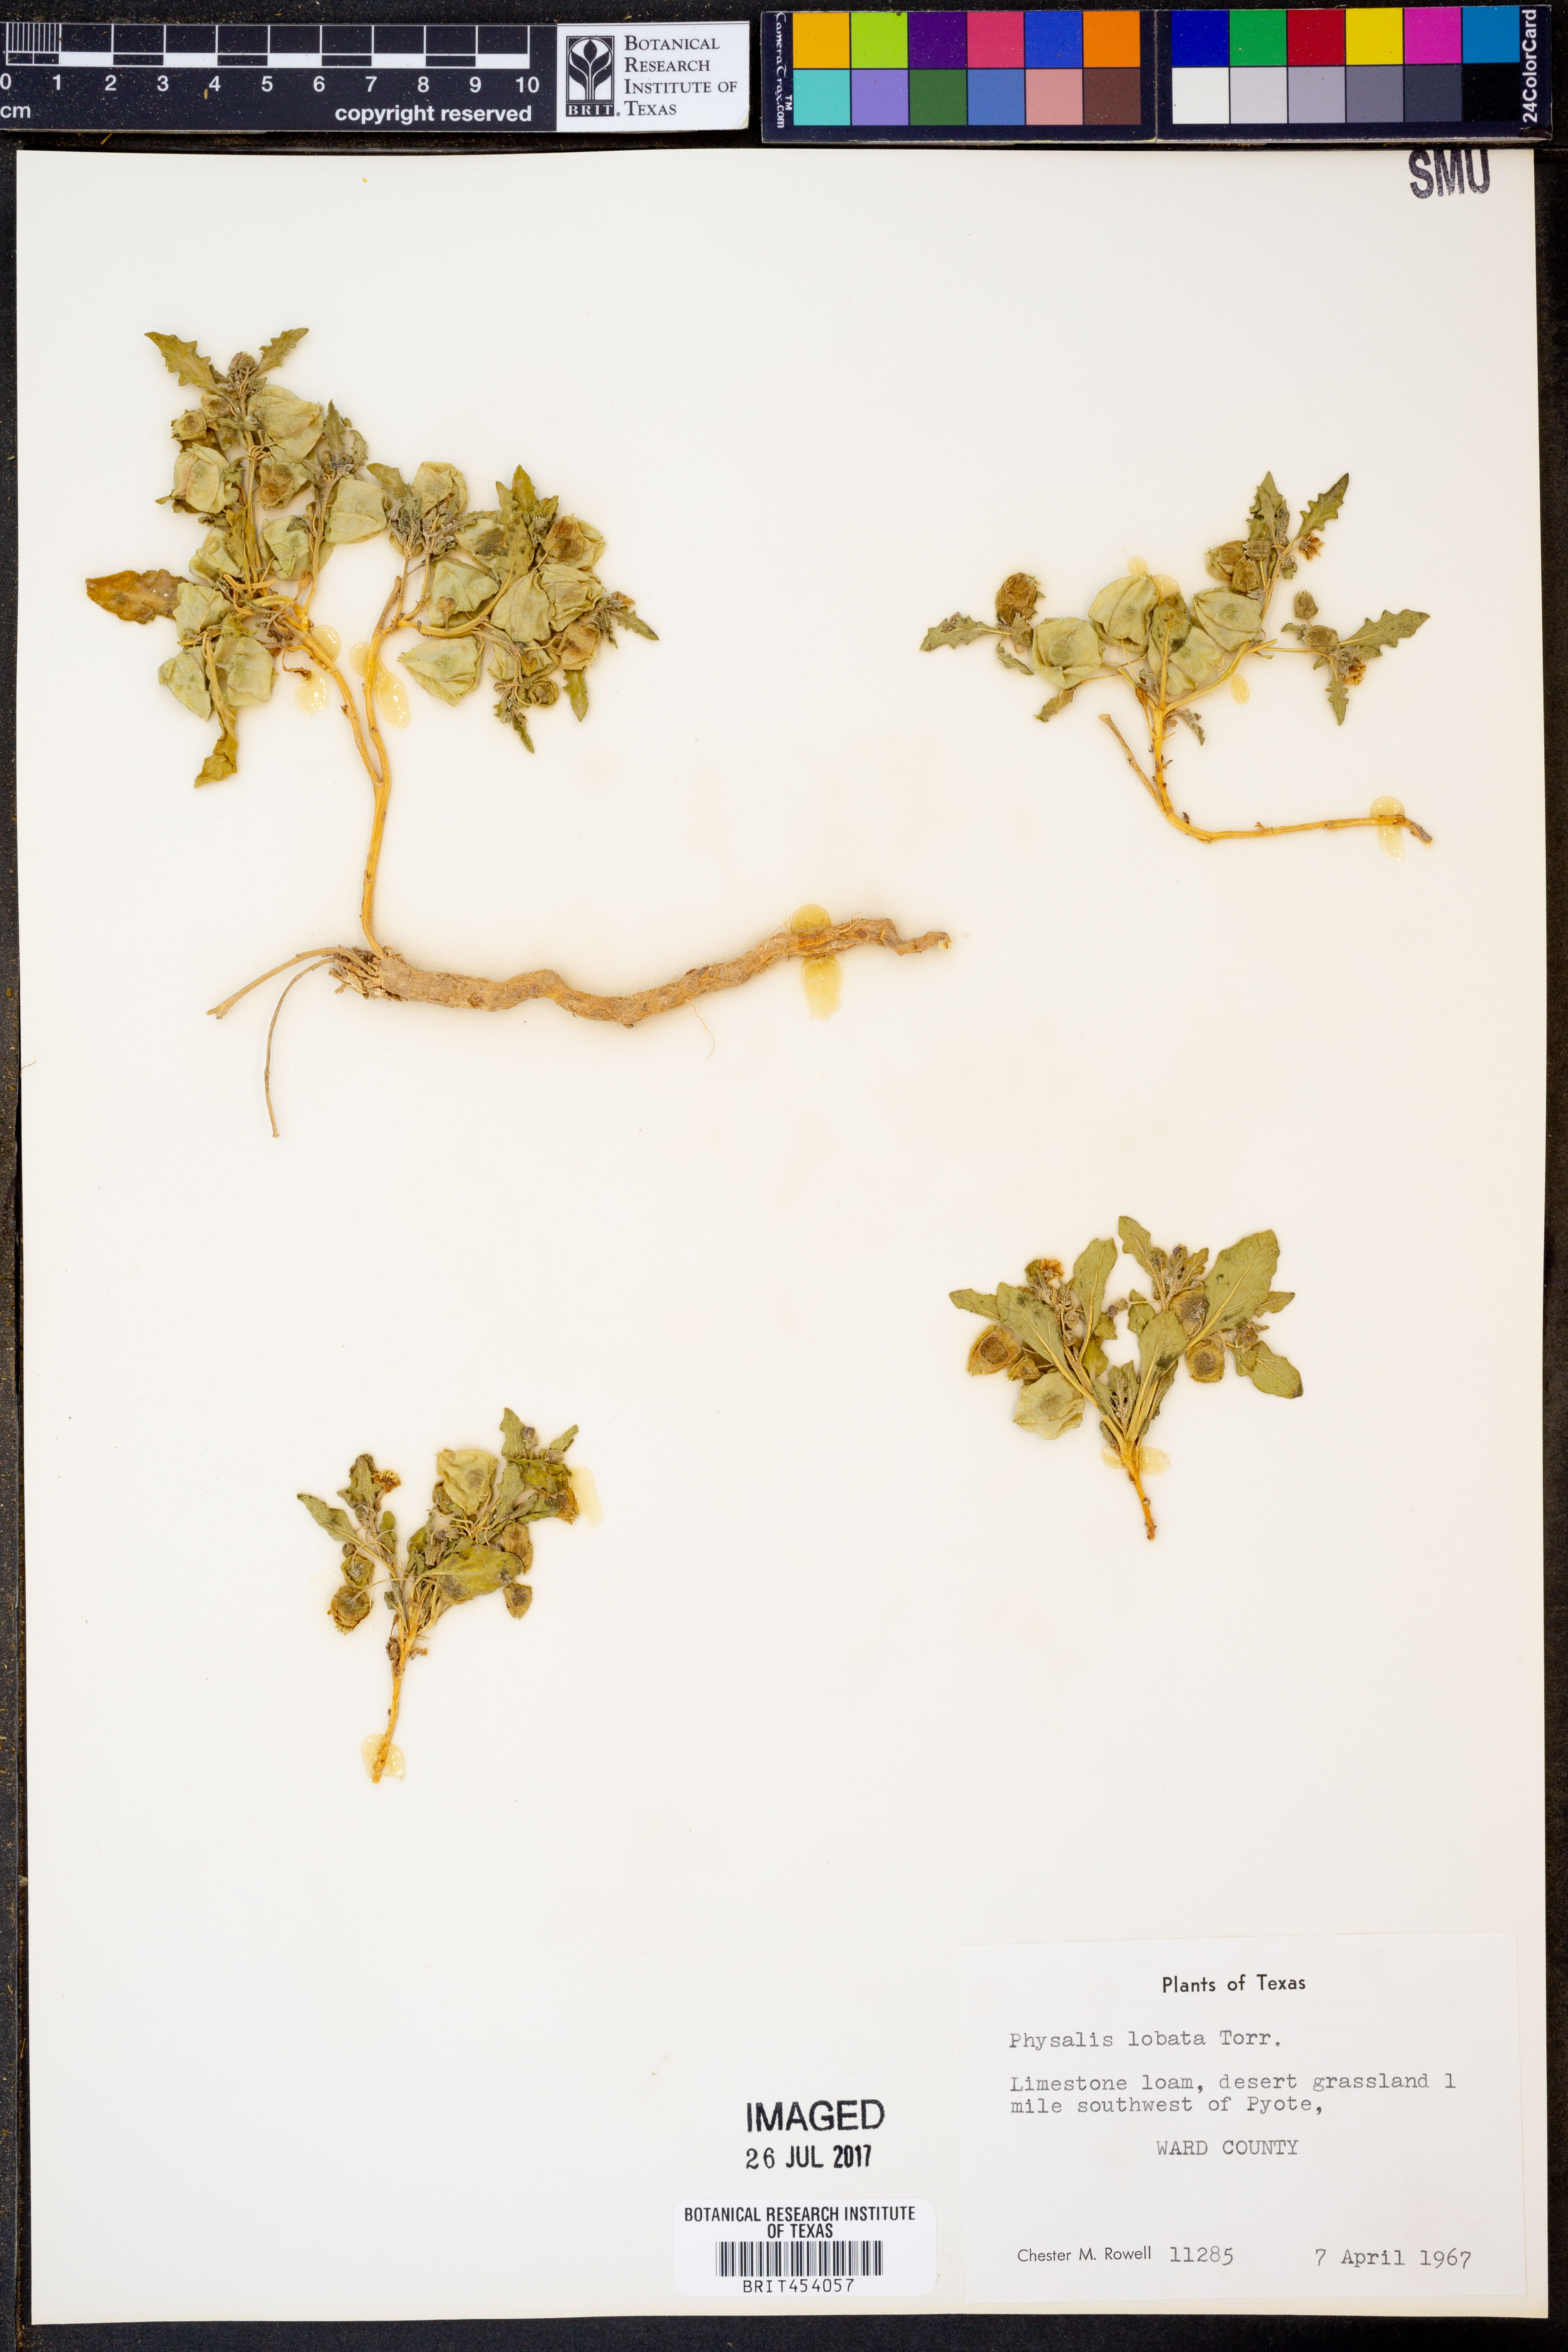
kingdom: Plantae
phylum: Tracheophyta
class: Magnoliopsida
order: Solanales
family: Solanaceae
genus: Quincula
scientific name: Quincula lobata
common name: Purple-ground-cherry
